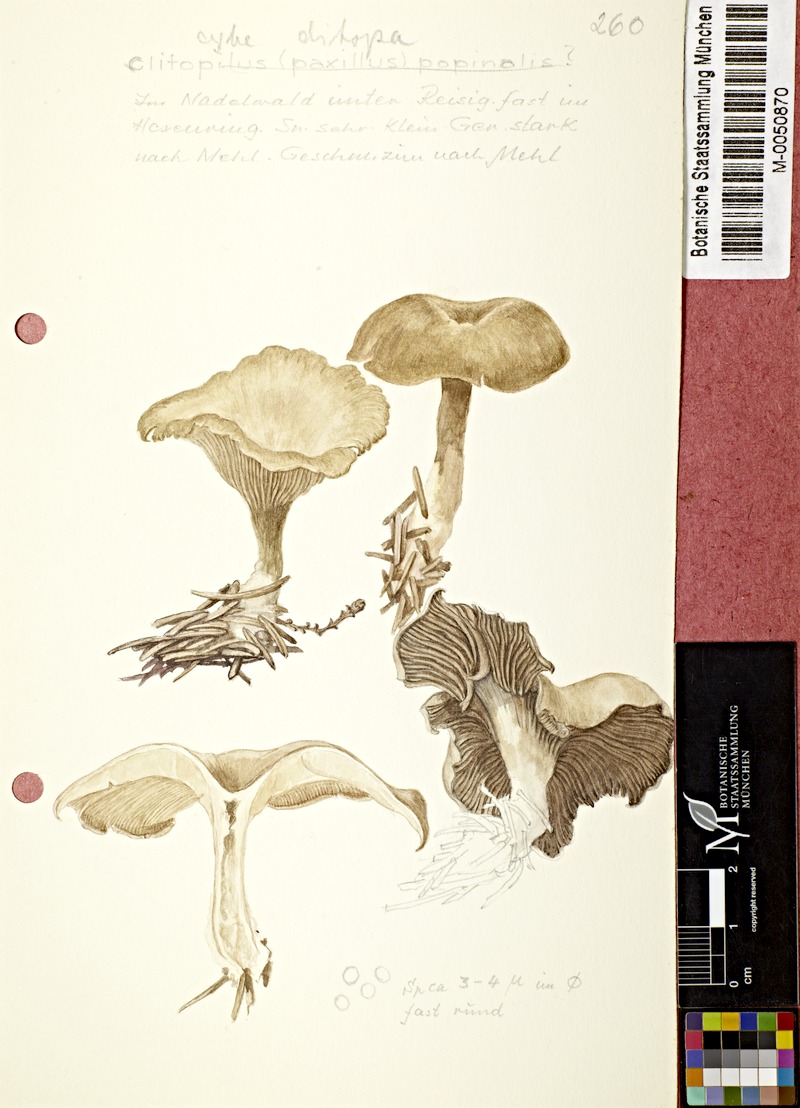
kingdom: Fungi
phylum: Basidiomycota
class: Agaricomycetes
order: Agaricales
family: Tricholomataceae
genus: Clitocybe
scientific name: Clitocybe ditopa
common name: Mealy frosted funnel
